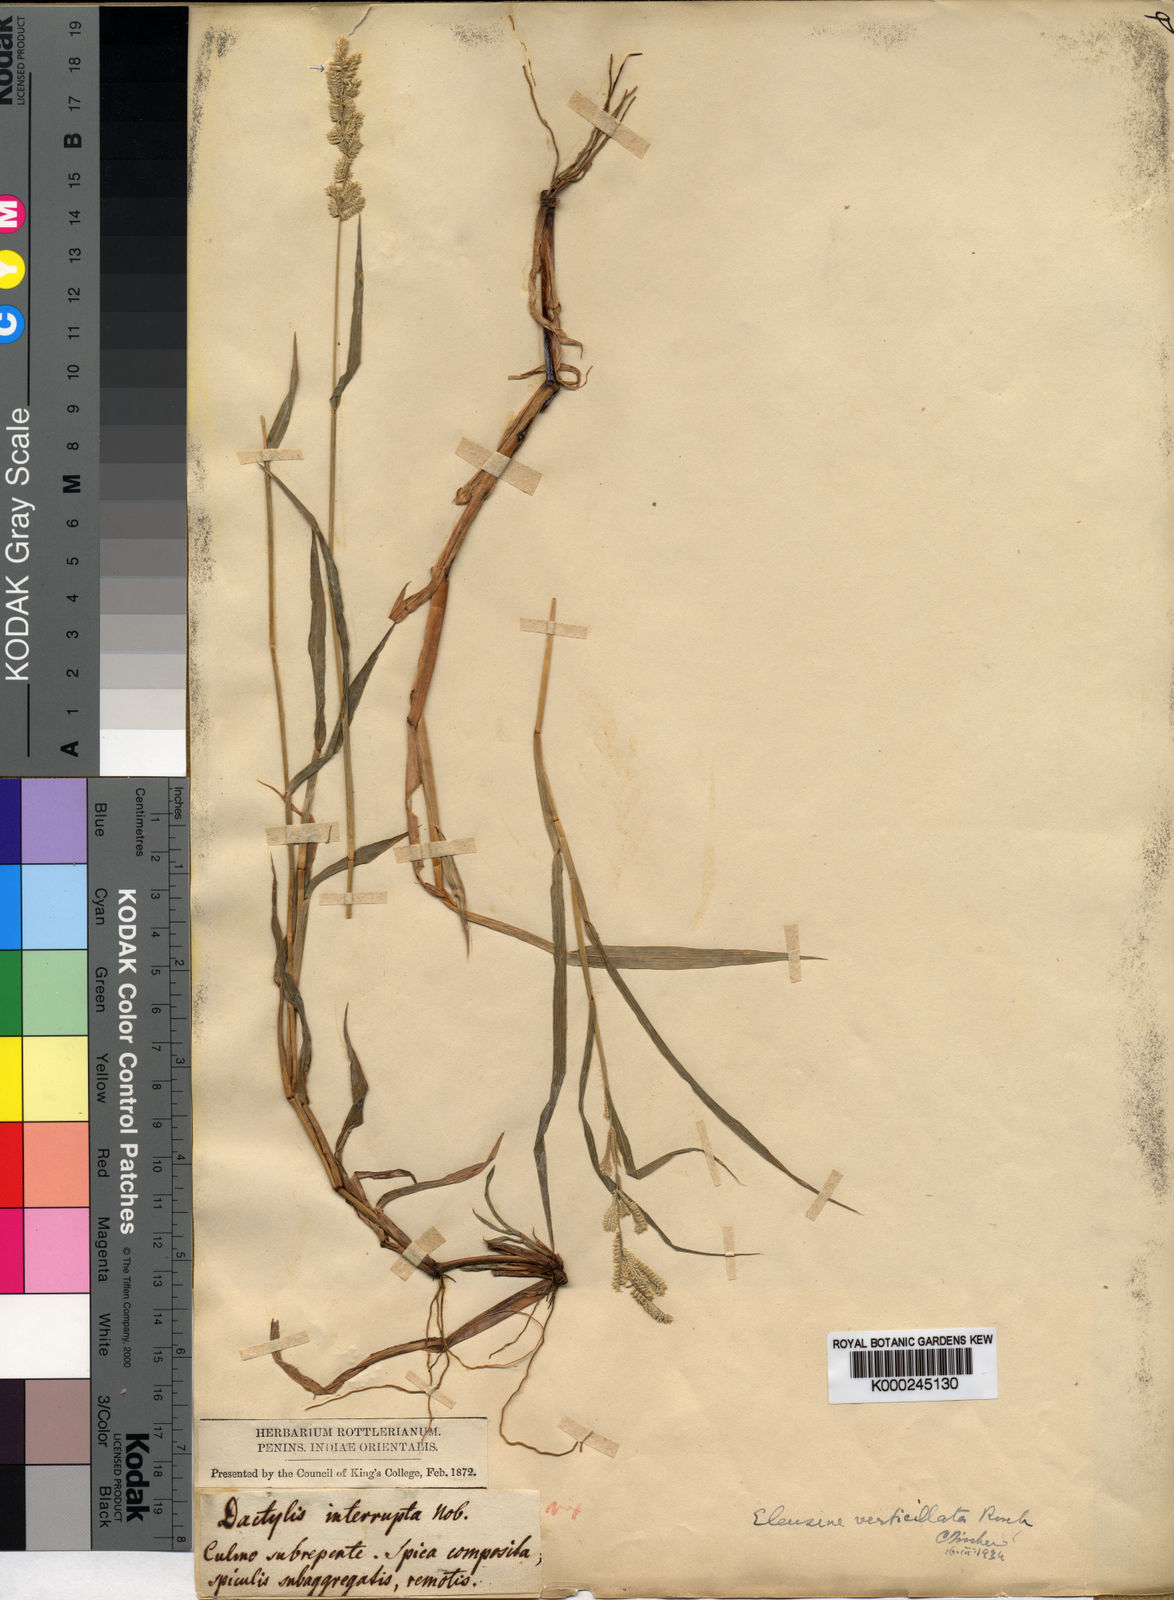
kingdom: Plantae
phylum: Tracheophyta
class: Liliopsida
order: Poales
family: Poaceae
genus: Acrachne
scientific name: Acrachne henrardiana
